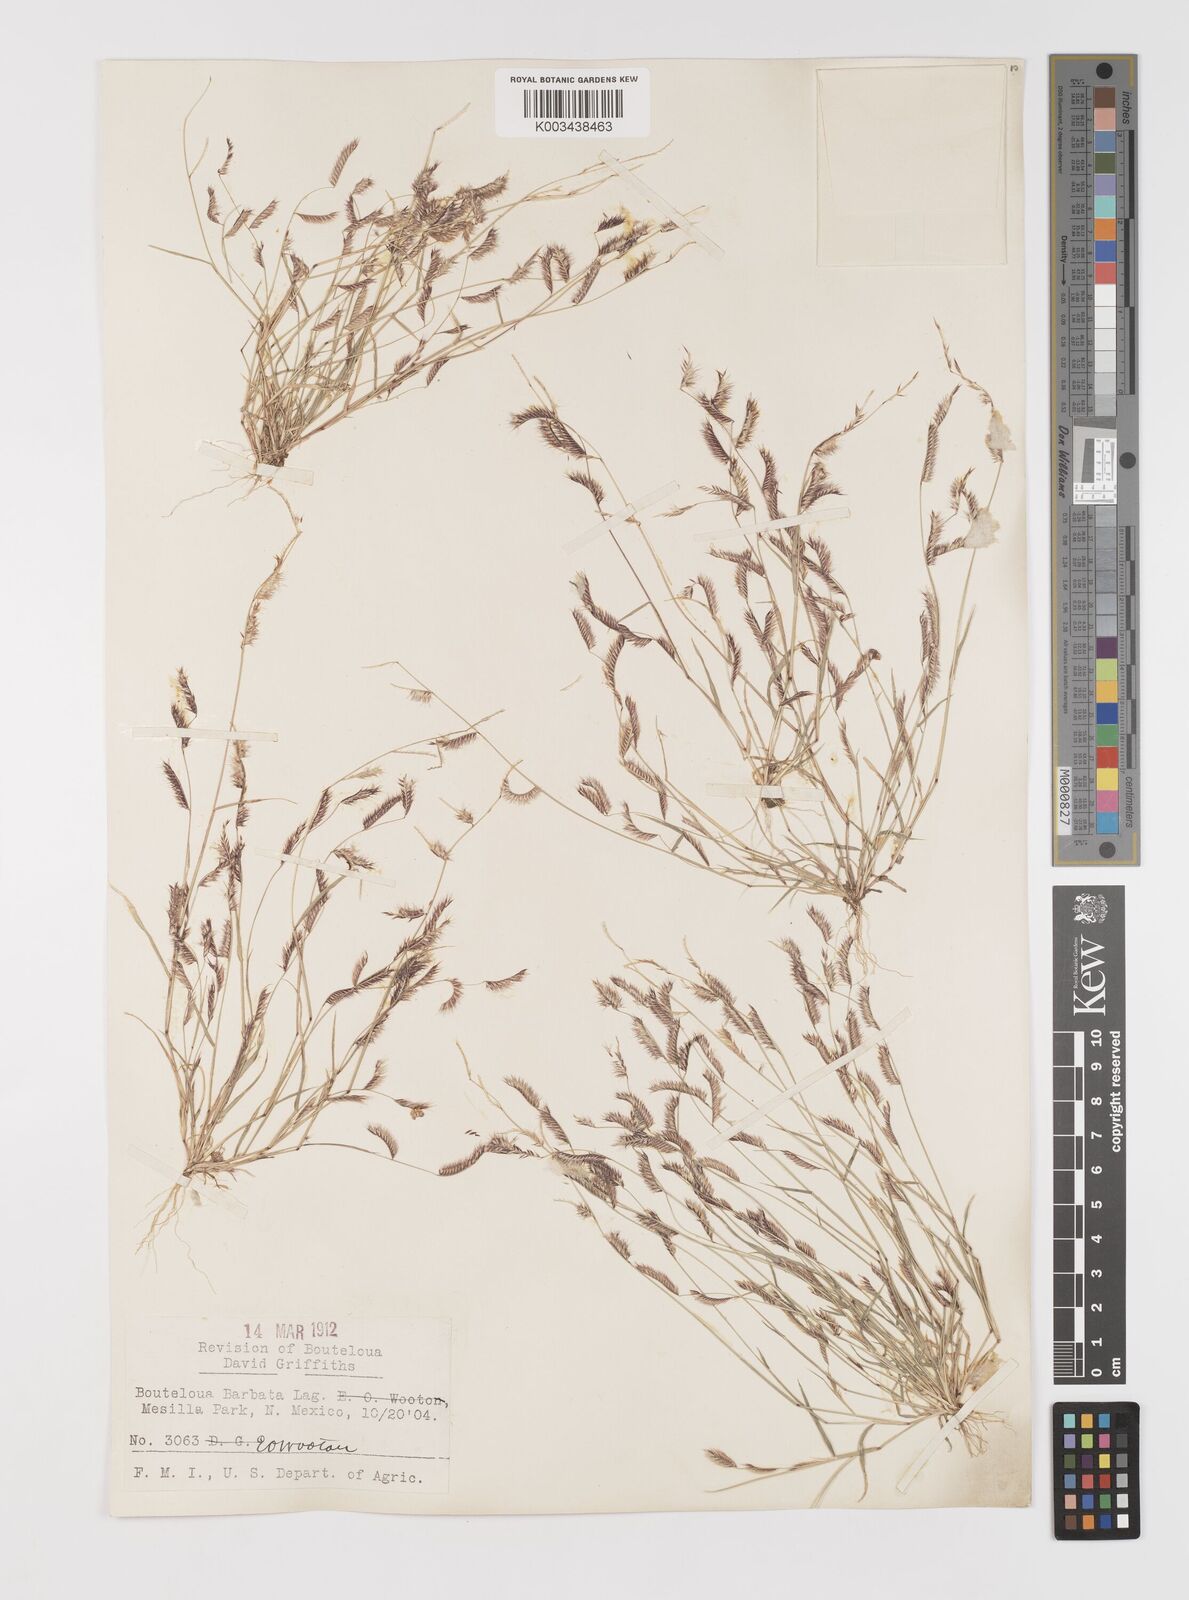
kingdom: Plantae
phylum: Tracheophyta
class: Liliopsida
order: Poales
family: Poaceae
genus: Bouteloua
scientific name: Bouteloua
